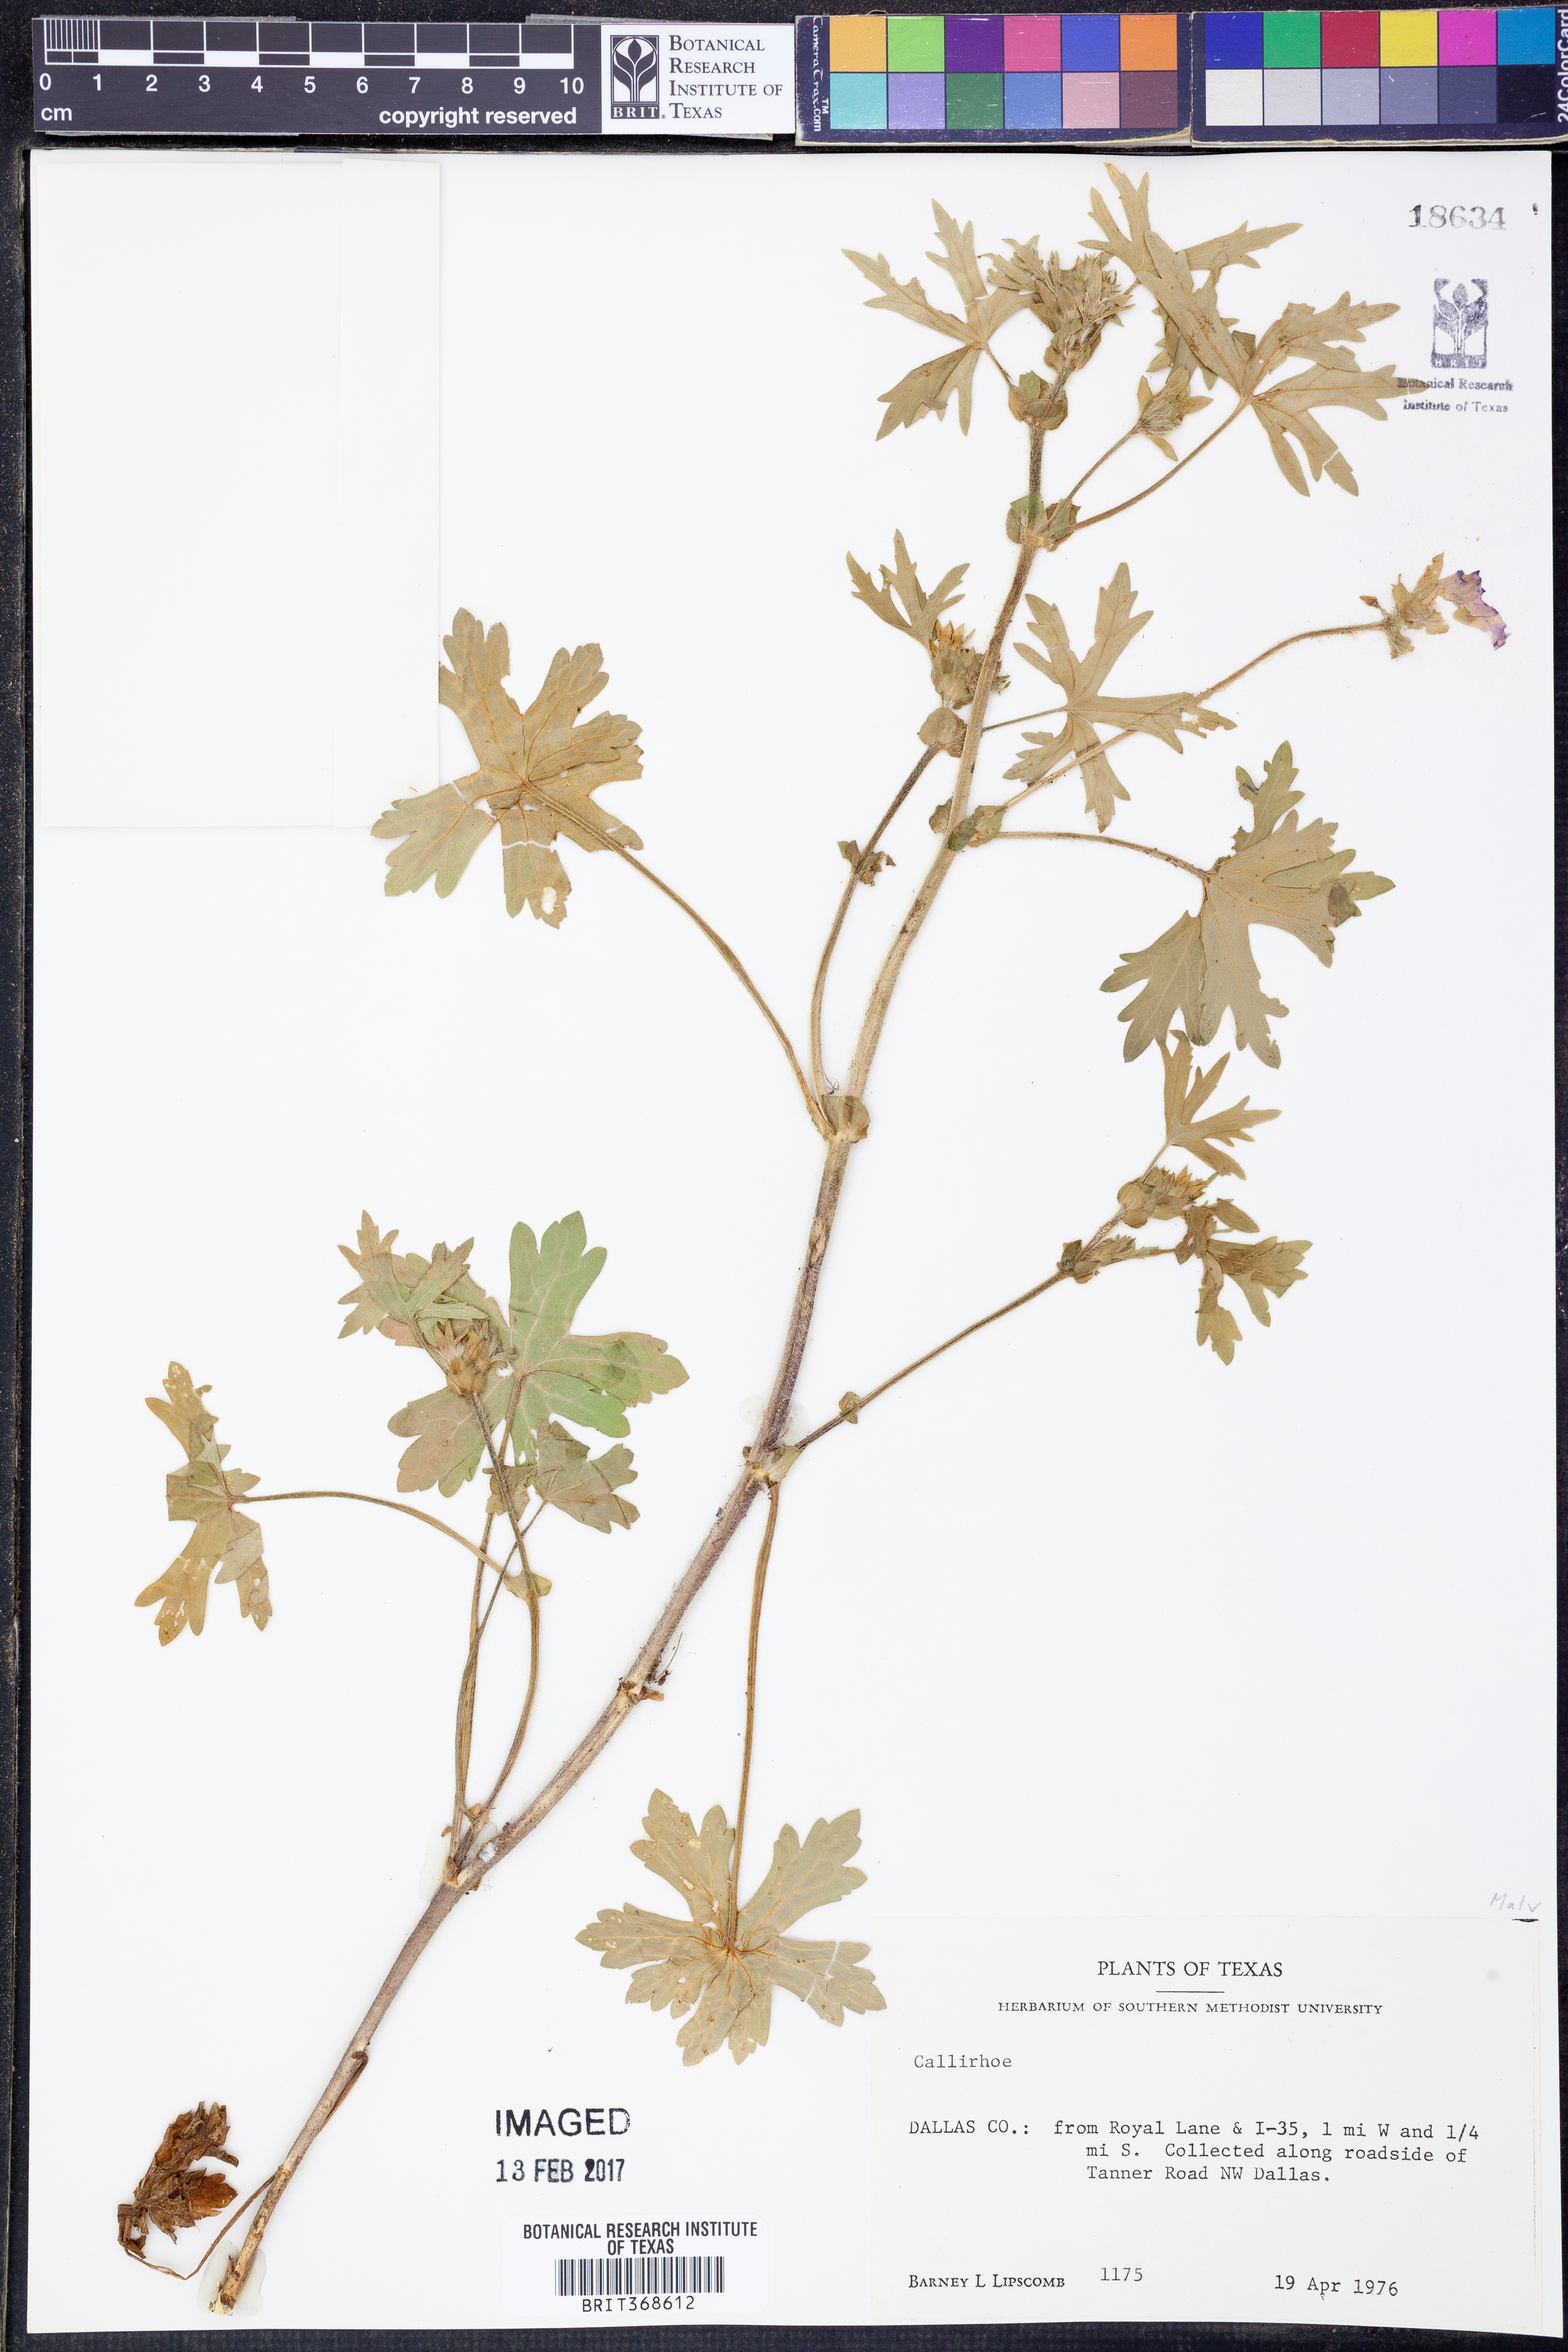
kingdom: Plantae
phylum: Tracheophyta
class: Magnoliopsida
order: Malvales
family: Malvaceae
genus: Callirhoe
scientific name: Callirhoe
